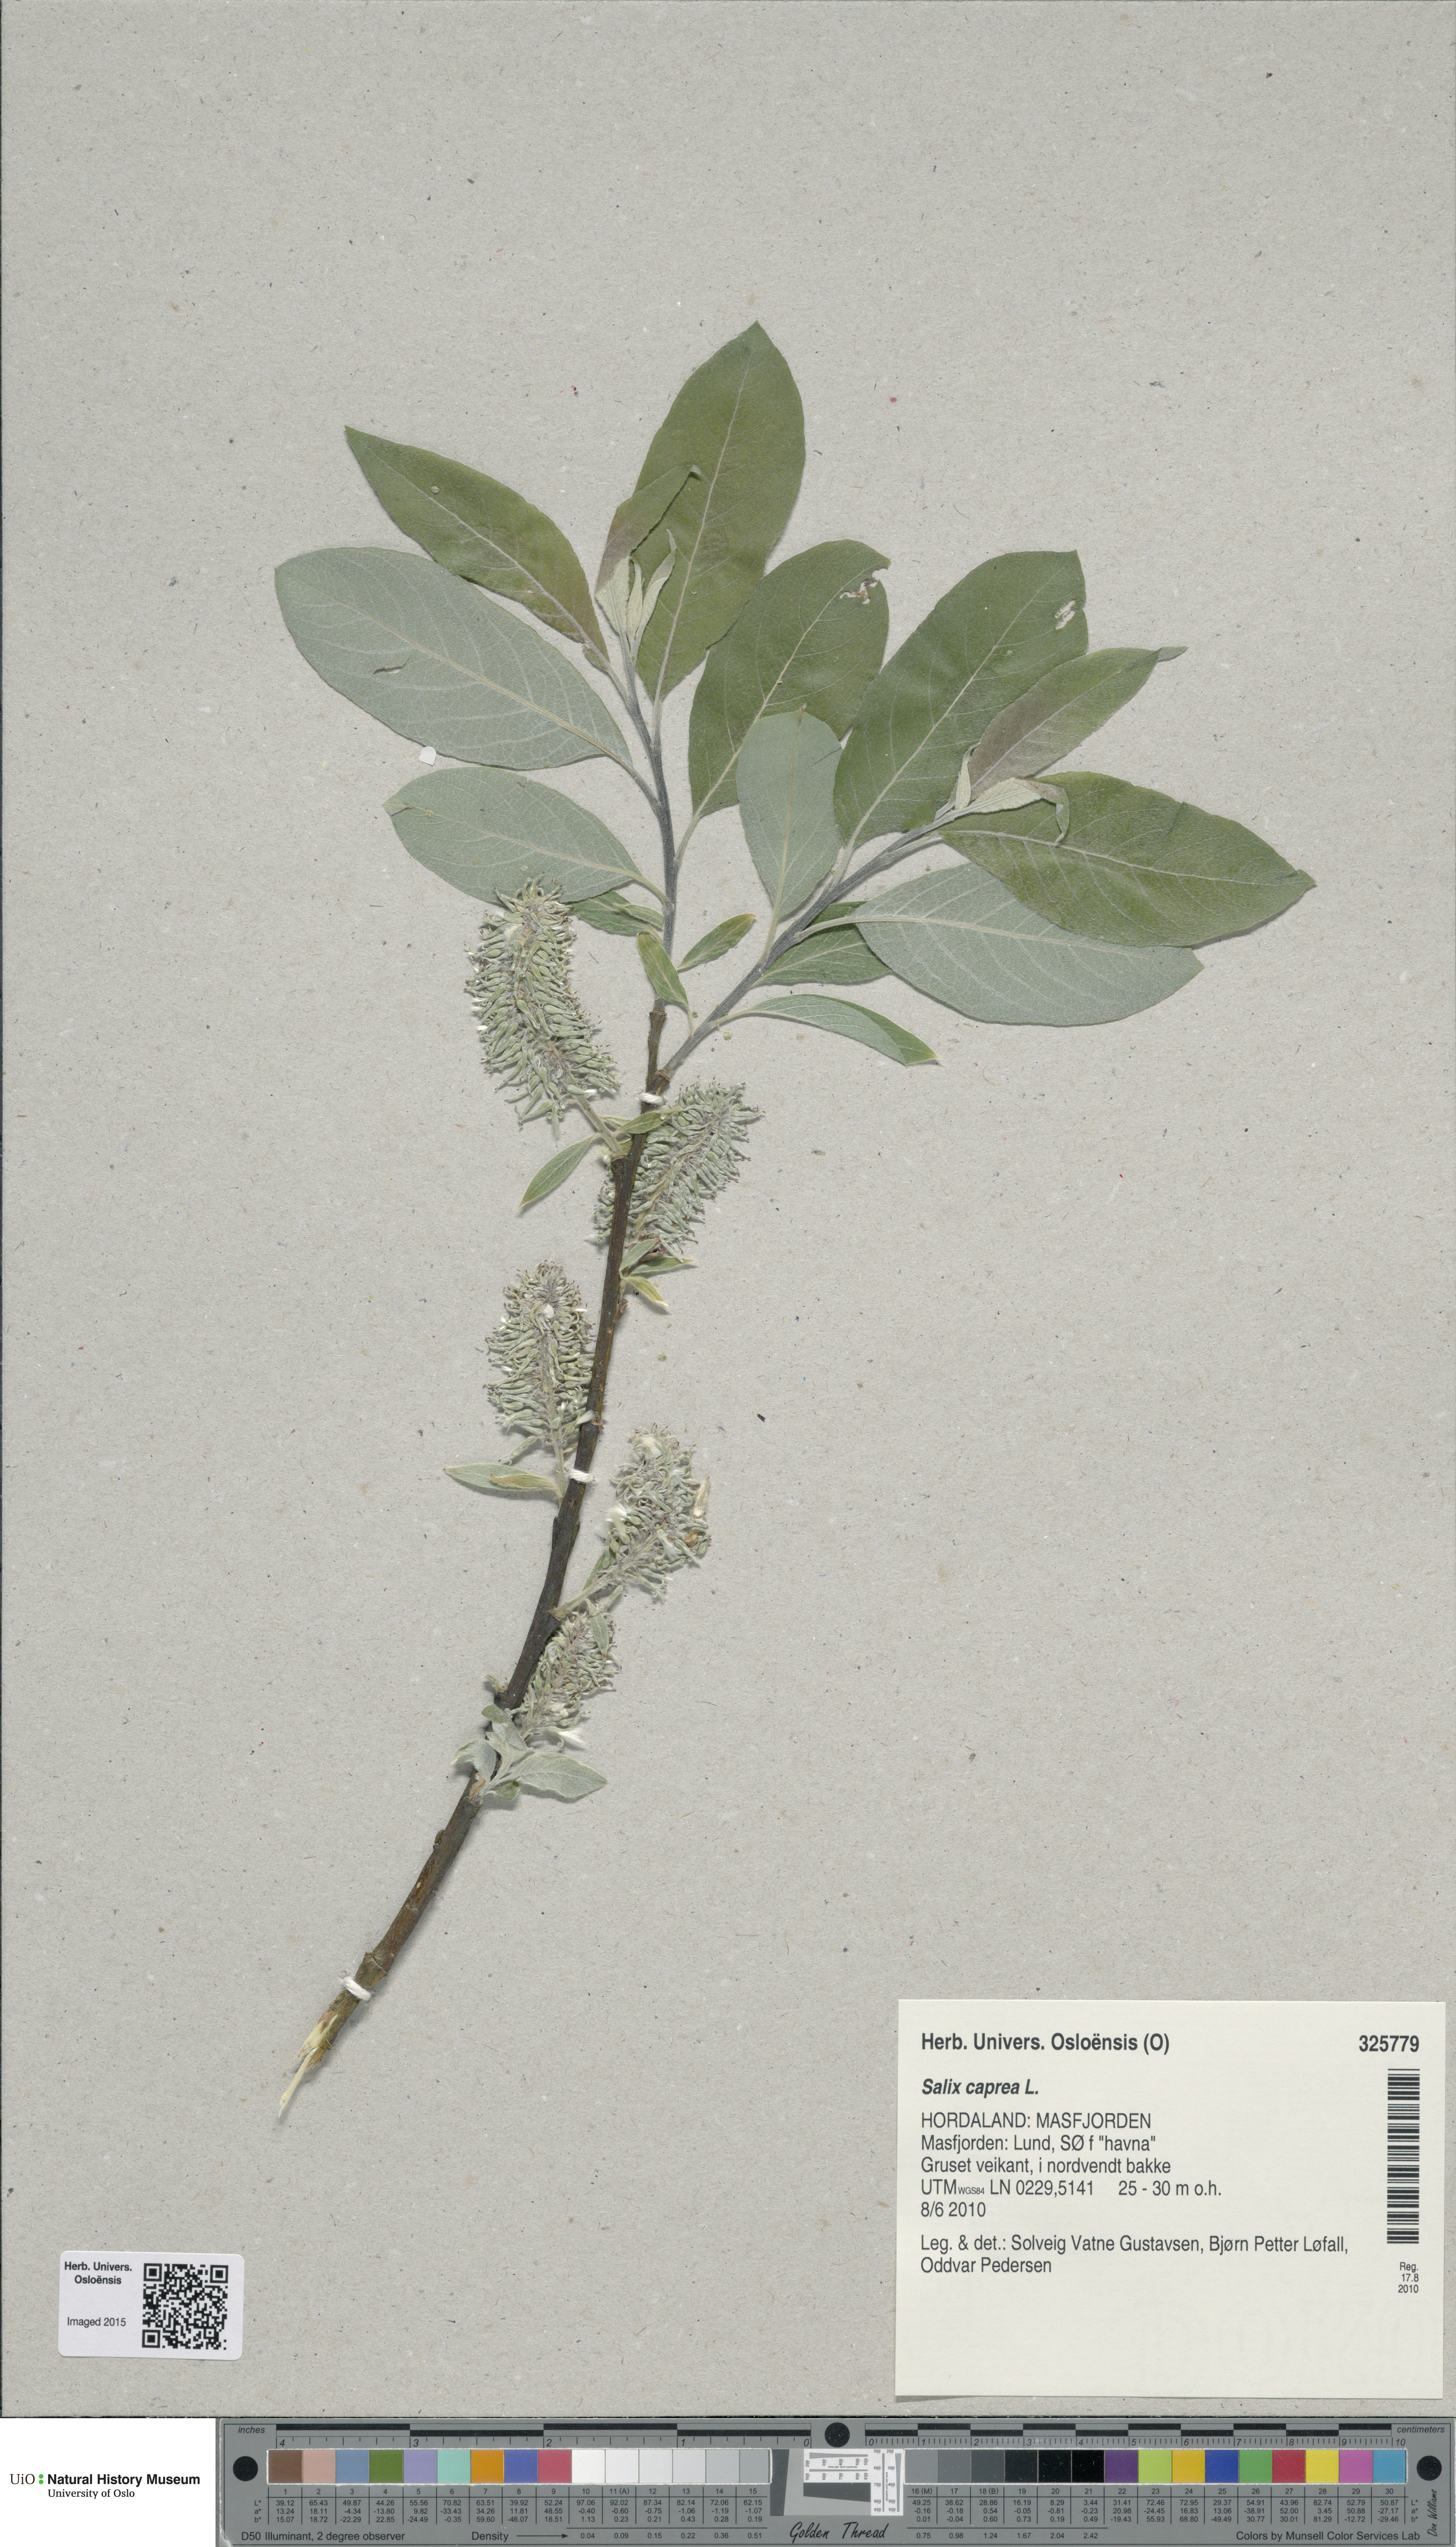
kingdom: Plantae
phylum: Tracheophyta
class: Magnoliopsida
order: Malpighiales
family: Salicaceae
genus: Salix
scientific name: Salix caprea
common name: Goat willow
